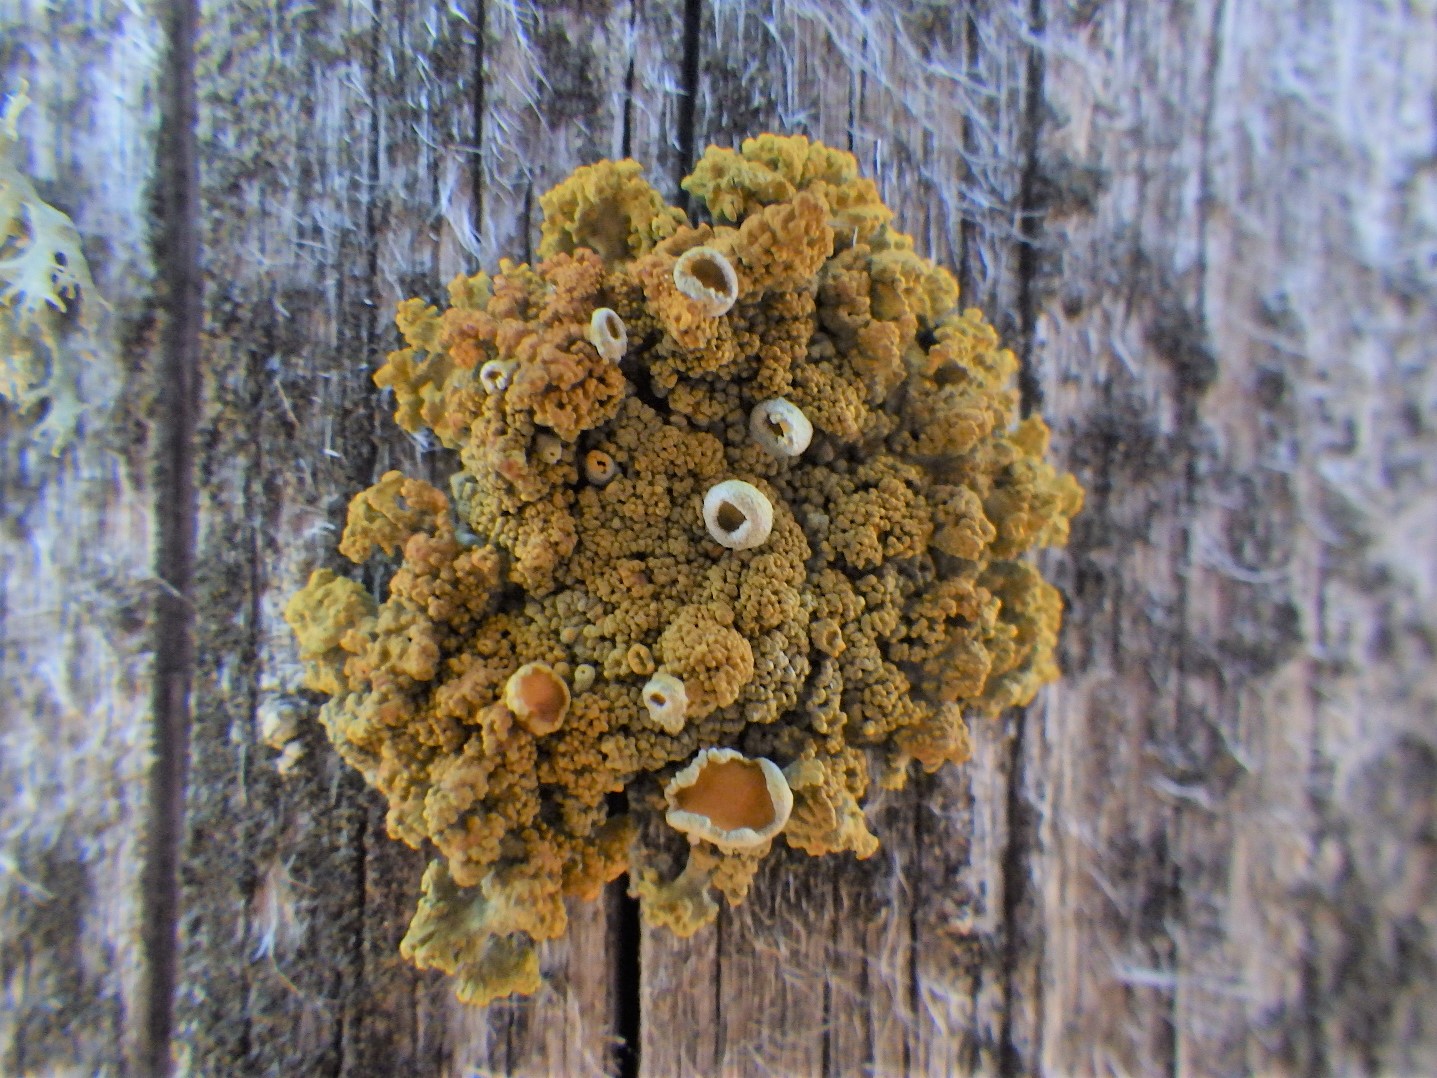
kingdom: Fungi
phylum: Ascomycota
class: Lecanoromycetes
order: Teloschistales
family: Teloschistaceae
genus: Polycauliona
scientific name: Polycauliona polycarpa
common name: mangefrugtet orangelav
